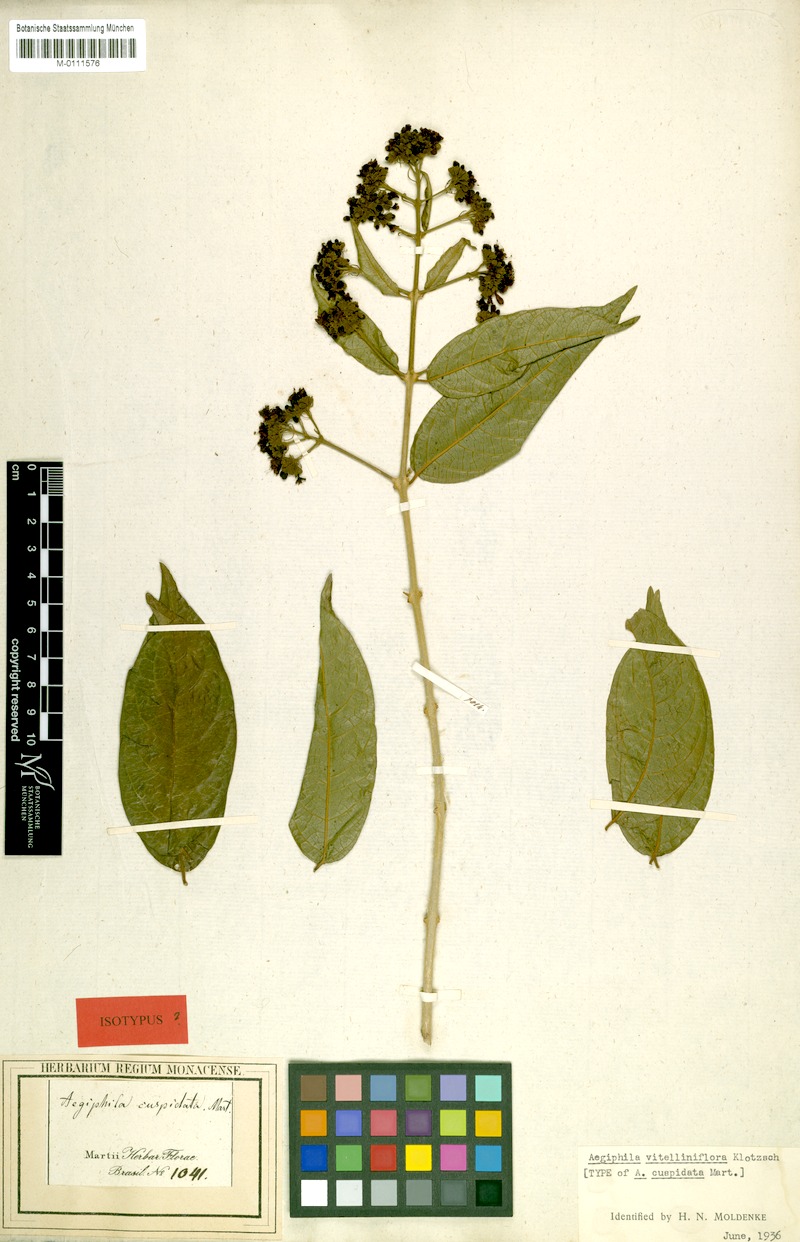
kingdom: Plantae
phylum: Tracheophyta
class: Magnoliopsida
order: Lamiales
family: Lamiaceae
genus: Aegiphila
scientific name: Aegiphila vitelliniflora
